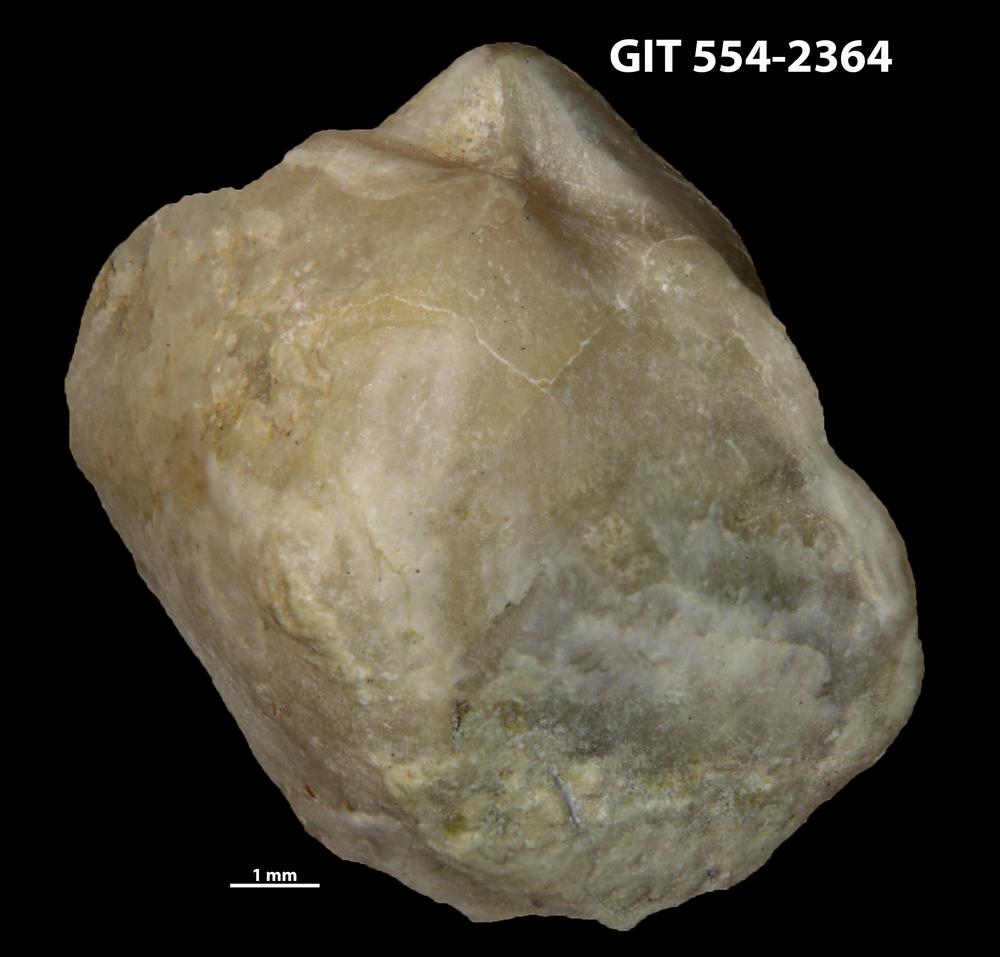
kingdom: Animalia
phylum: Brachiopoda
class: Rhynchonellata
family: Triplesiidae
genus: Triplesia
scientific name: Triplesia maennili
